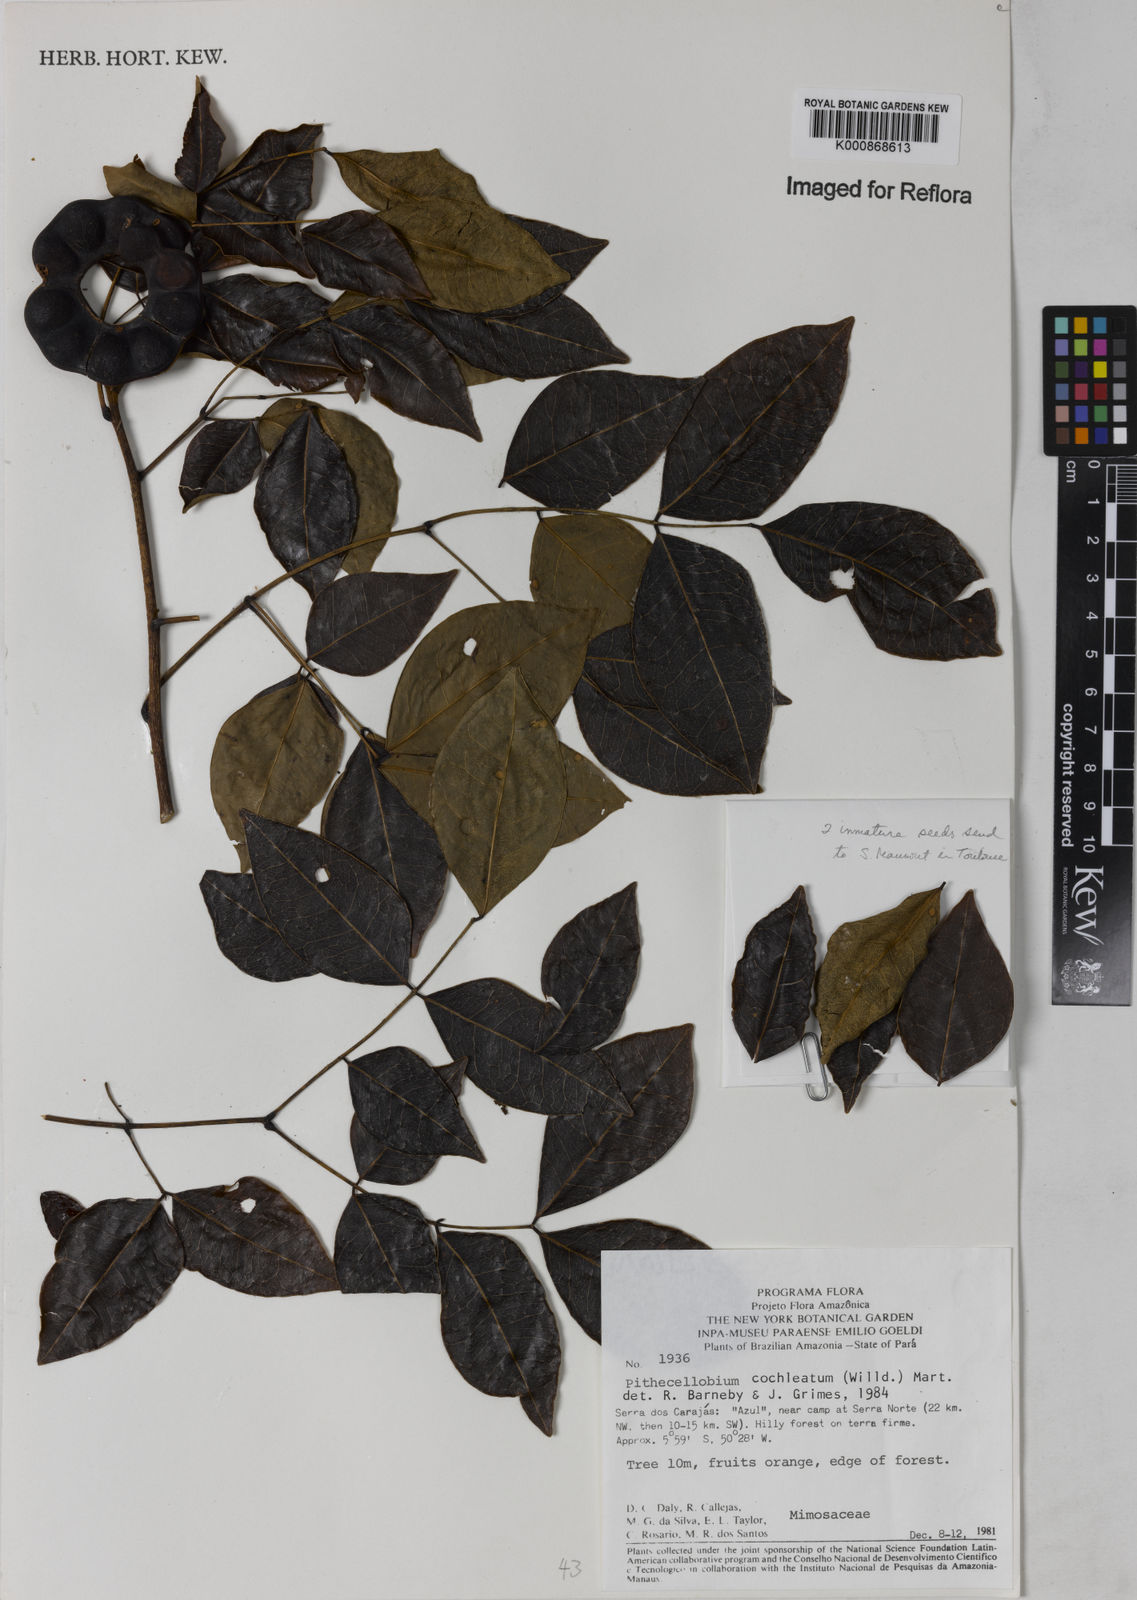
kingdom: Plantae
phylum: Tracheophyta
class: Magnoliopsida
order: Fabales
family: Fabaceae
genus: Jupunba
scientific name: Jupunba cochleata
